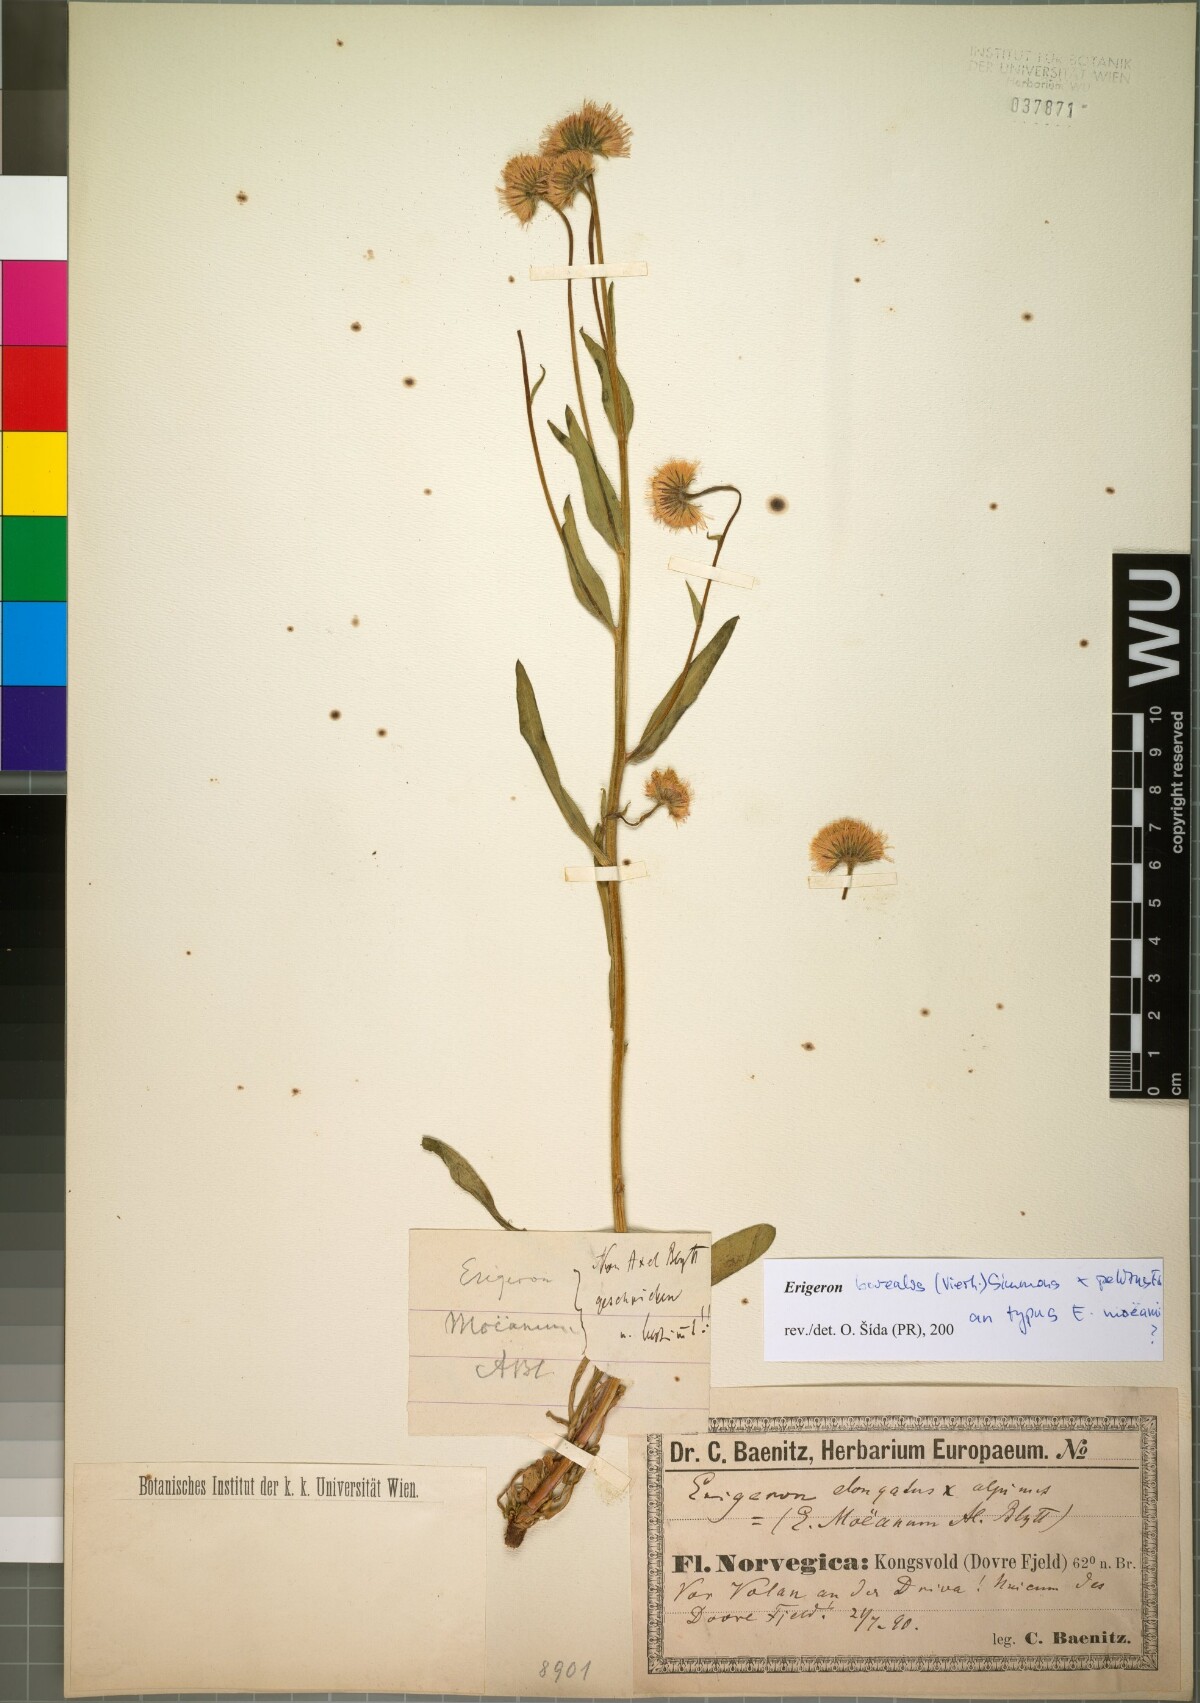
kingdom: Plantae
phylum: Tracheophyta
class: Magnoliopsida
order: Asterales
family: Asteraceae
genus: Erigeron
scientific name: Erigeron borealis
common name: Alpine fleabane
